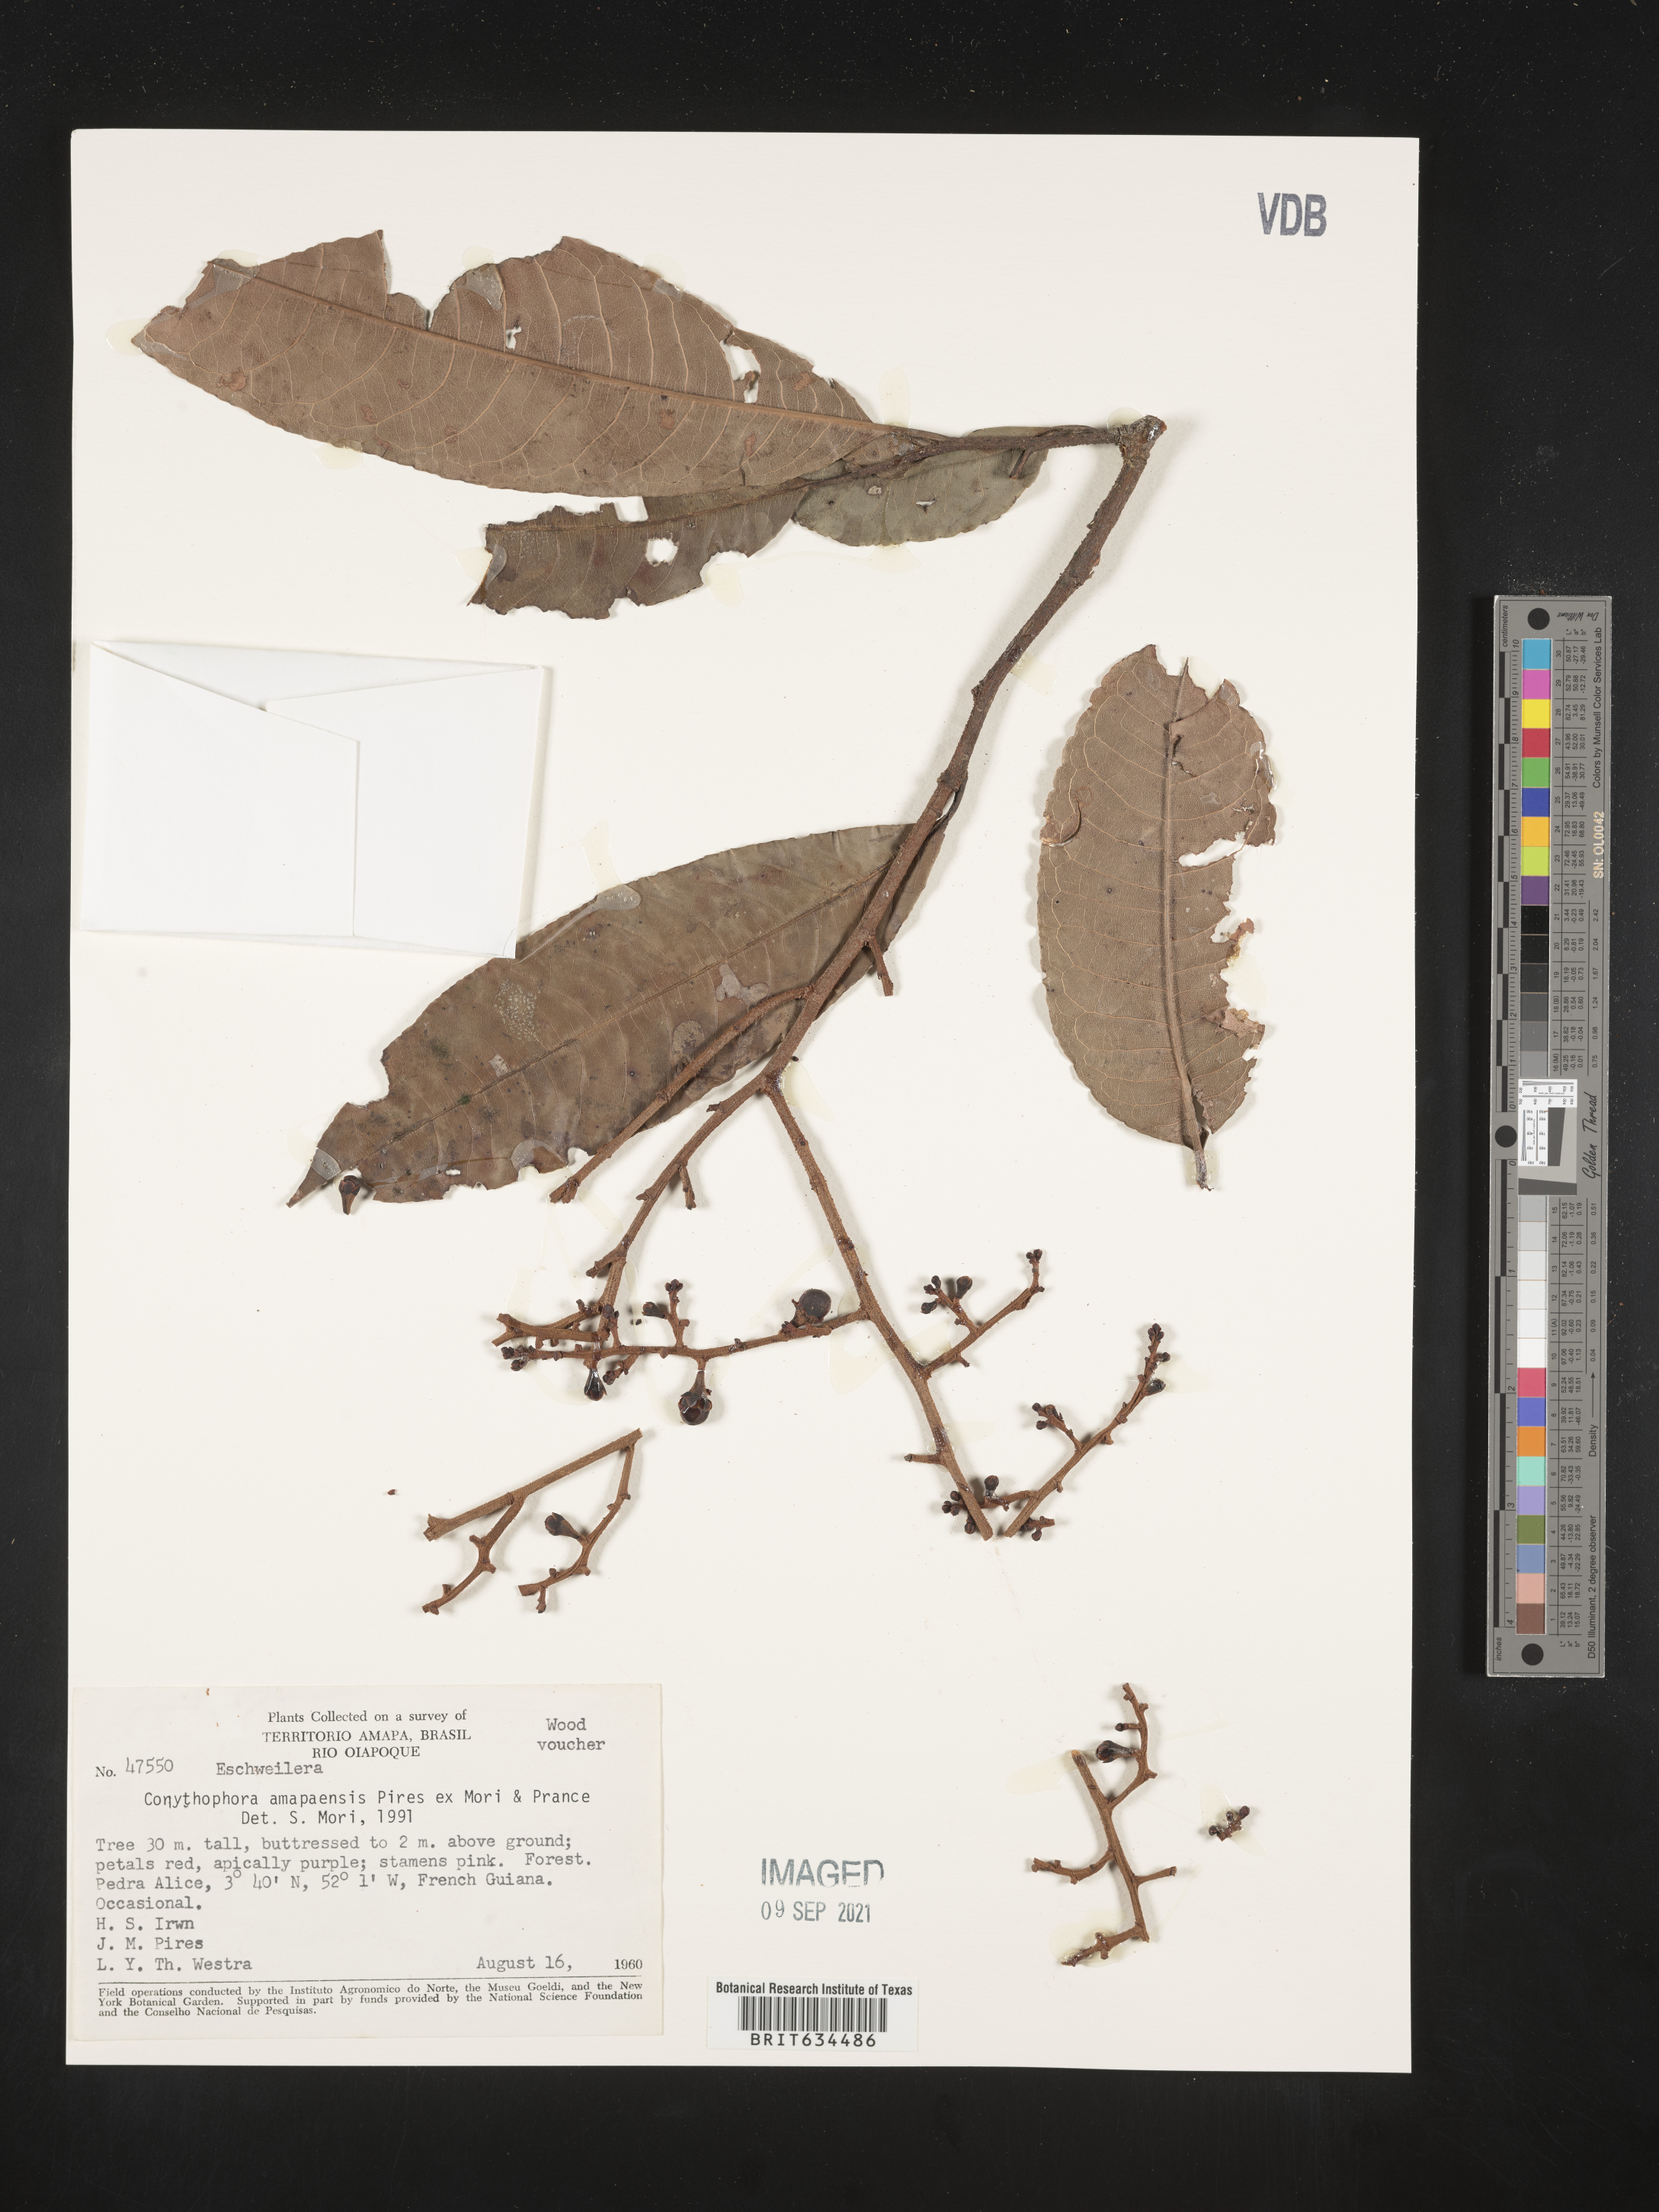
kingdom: Plantae
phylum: Tracheophyta
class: Magnoliopsida
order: Ericales
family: Lecythidaceae
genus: Corythophora
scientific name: Corythophora amapaensis
